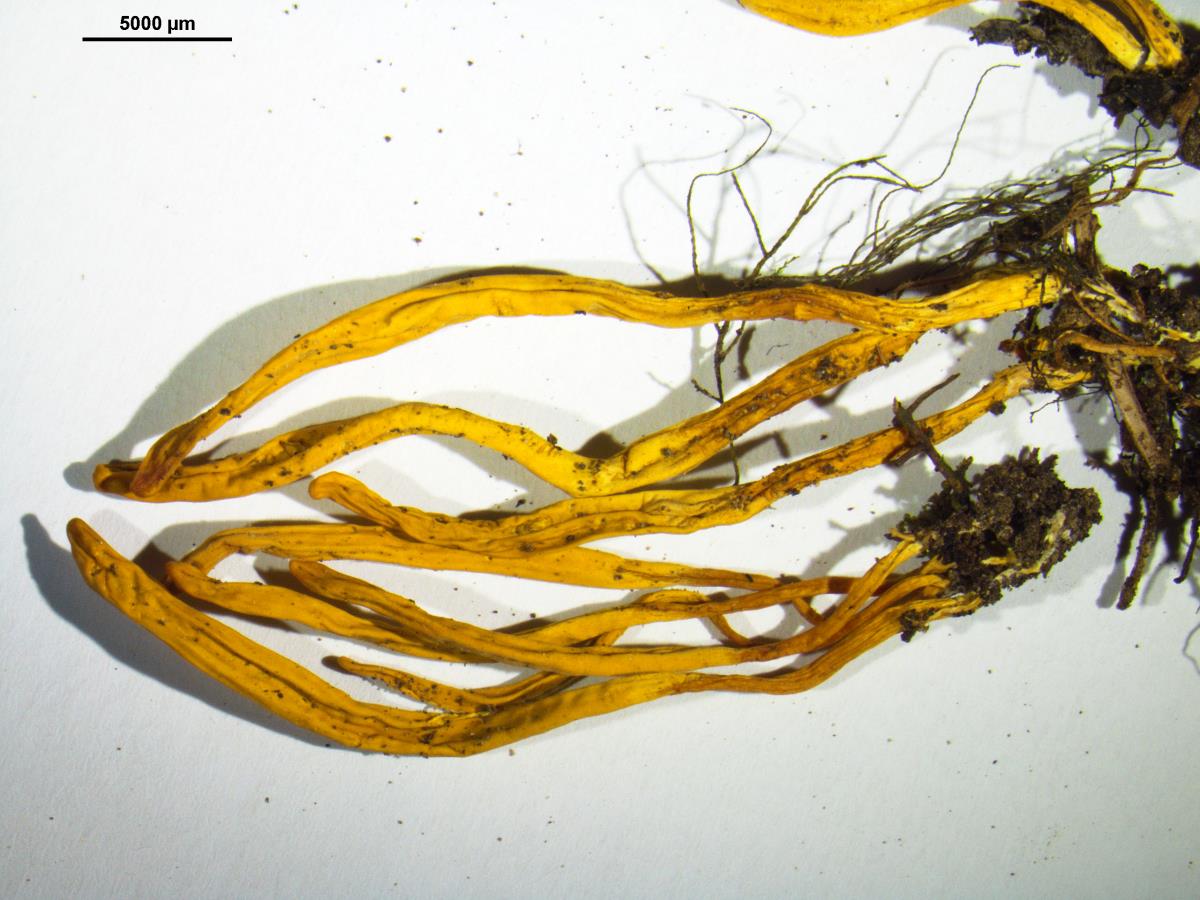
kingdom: Fungi
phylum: Basidiomycota
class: Agaricomycetes
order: Agaricales
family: Clavariaceae
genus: Clavulinopsis
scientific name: Clavulinopsis amoena
